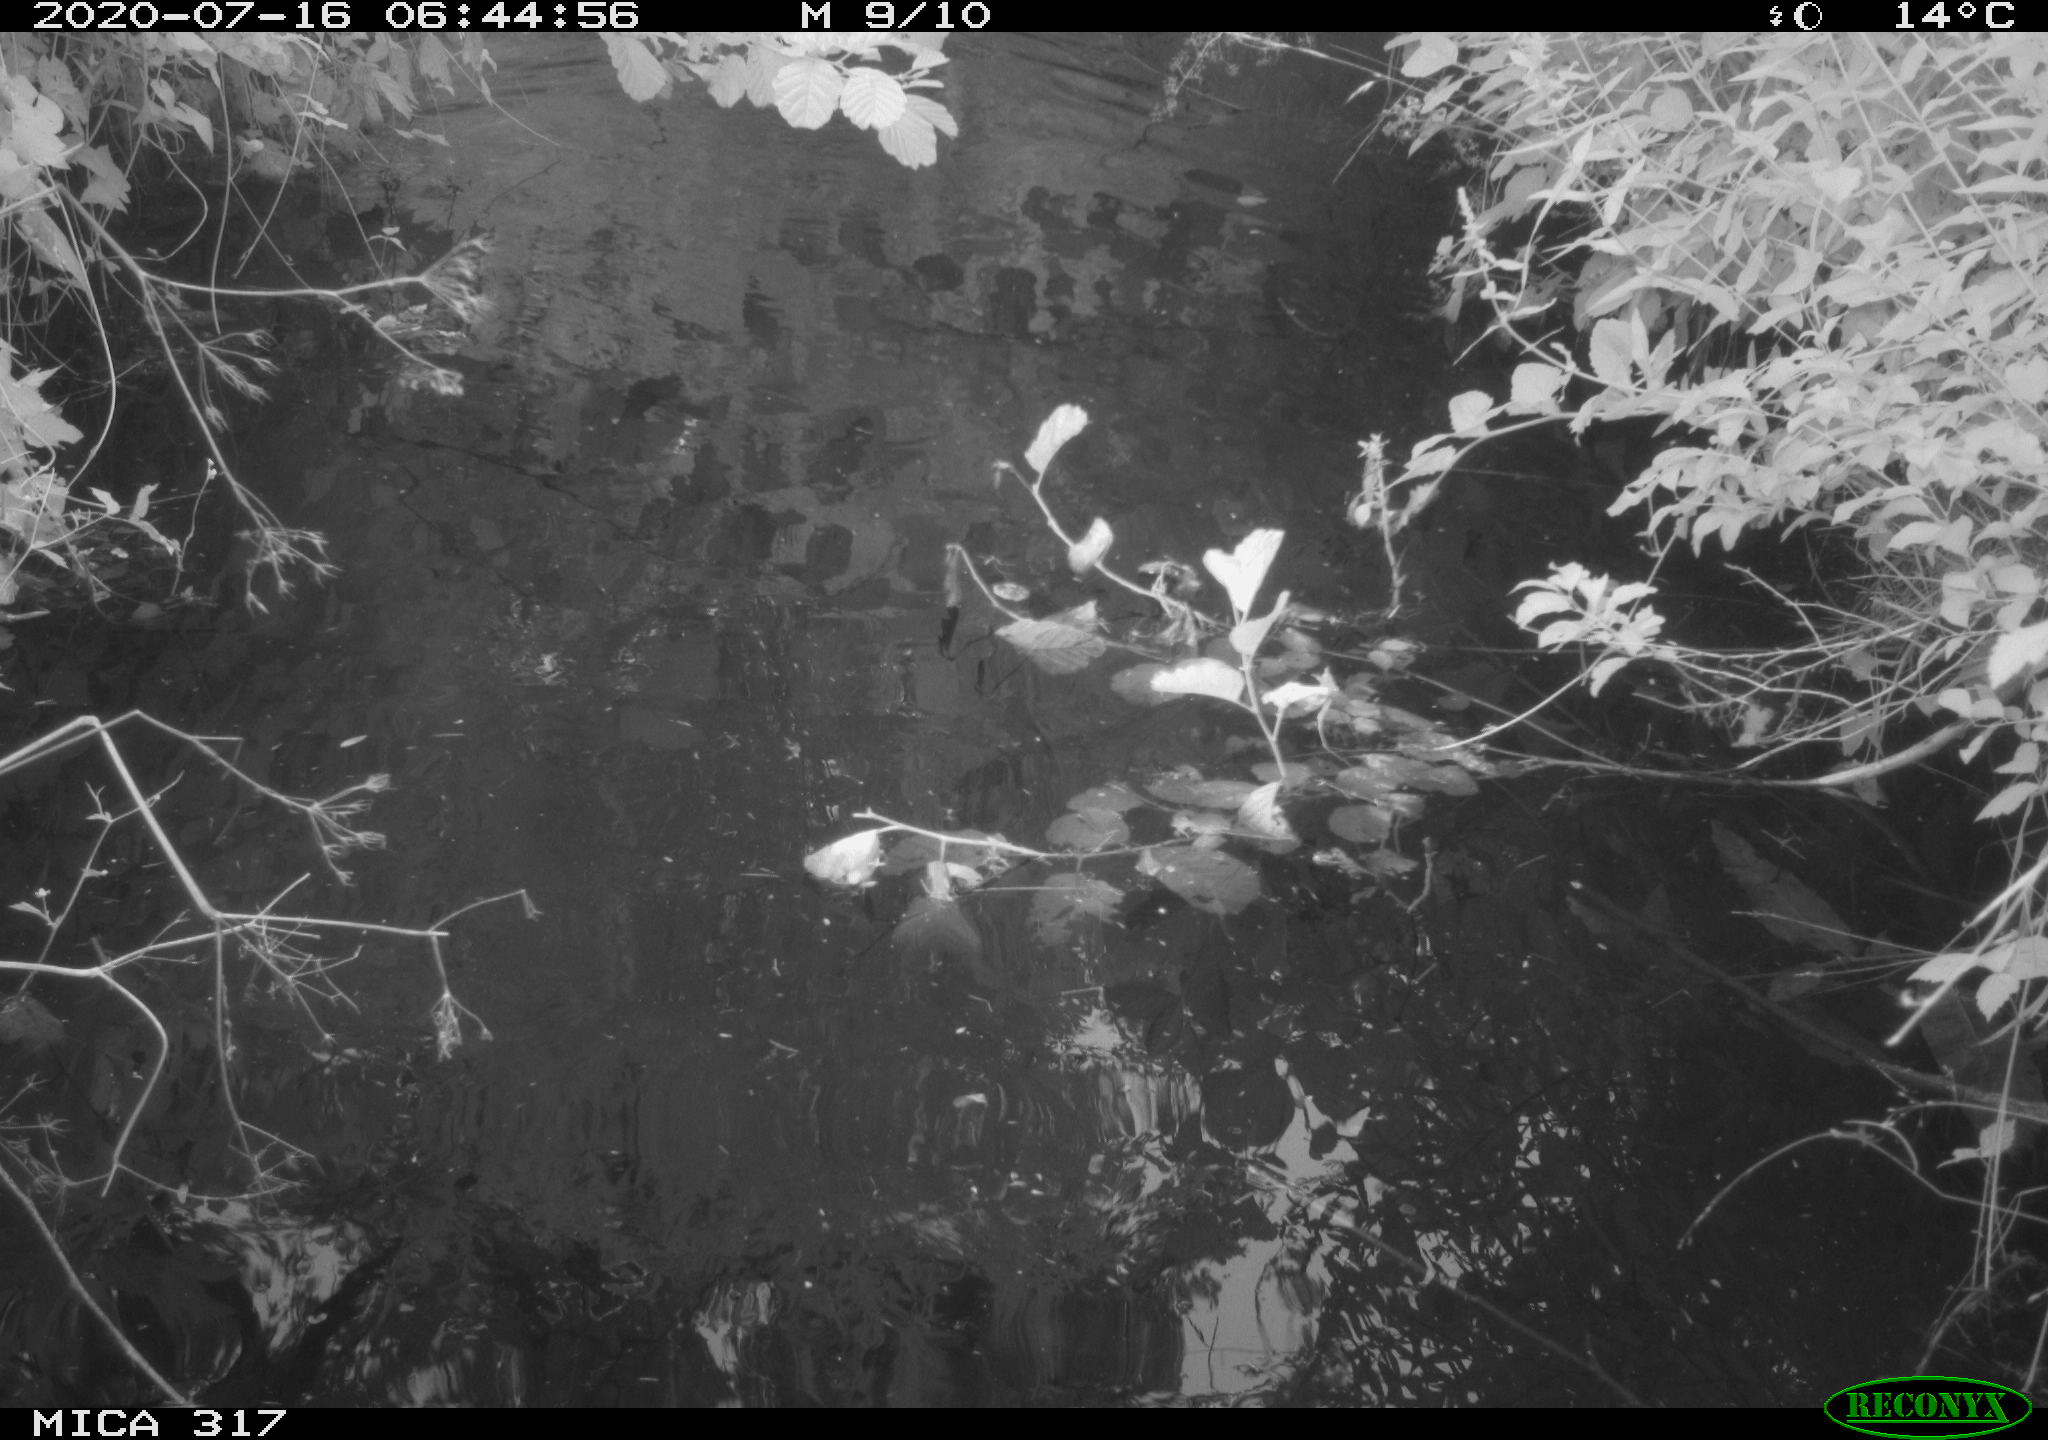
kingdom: Animalia
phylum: Chordata
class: Aves
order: Anseriformes
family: Anatidae
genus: Anas
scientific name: Anas platyrhynchos
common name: Mallard
